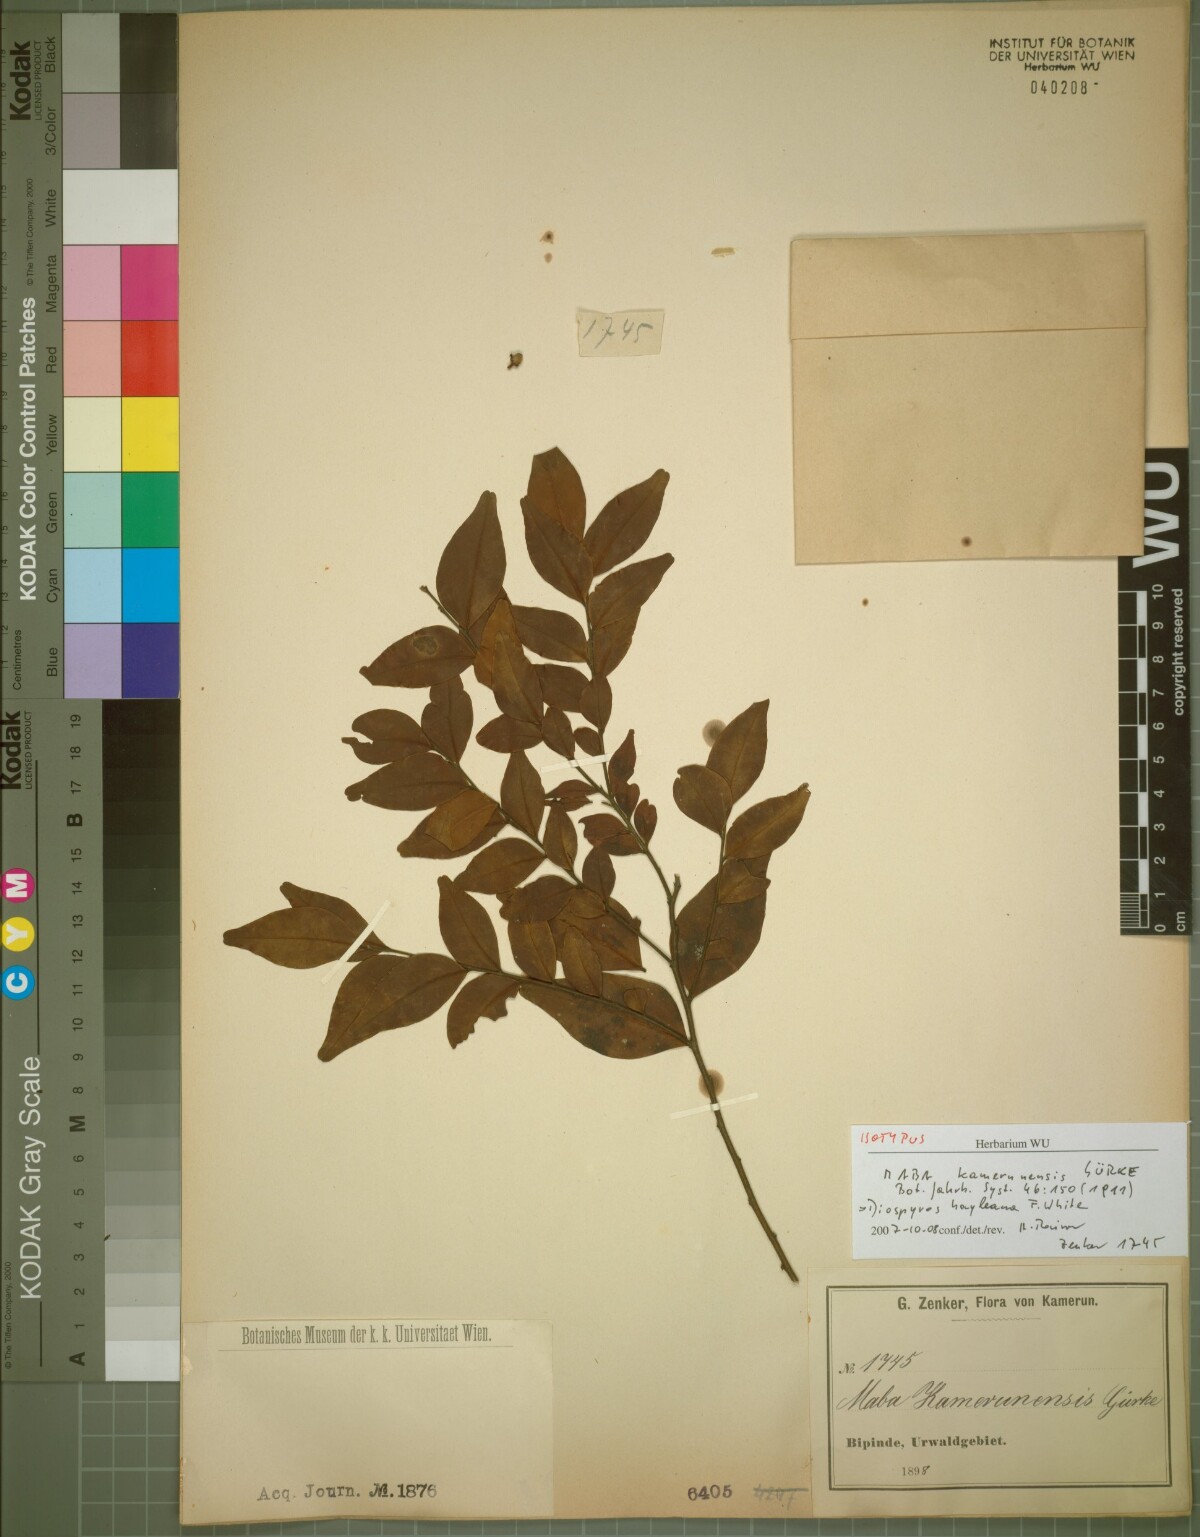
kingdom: Plantae
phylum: Tracheophyta
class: Magnoliopsida
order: Ericales
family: Ebenaceae
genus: Diospyros
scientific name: Diospyros hoyleana
